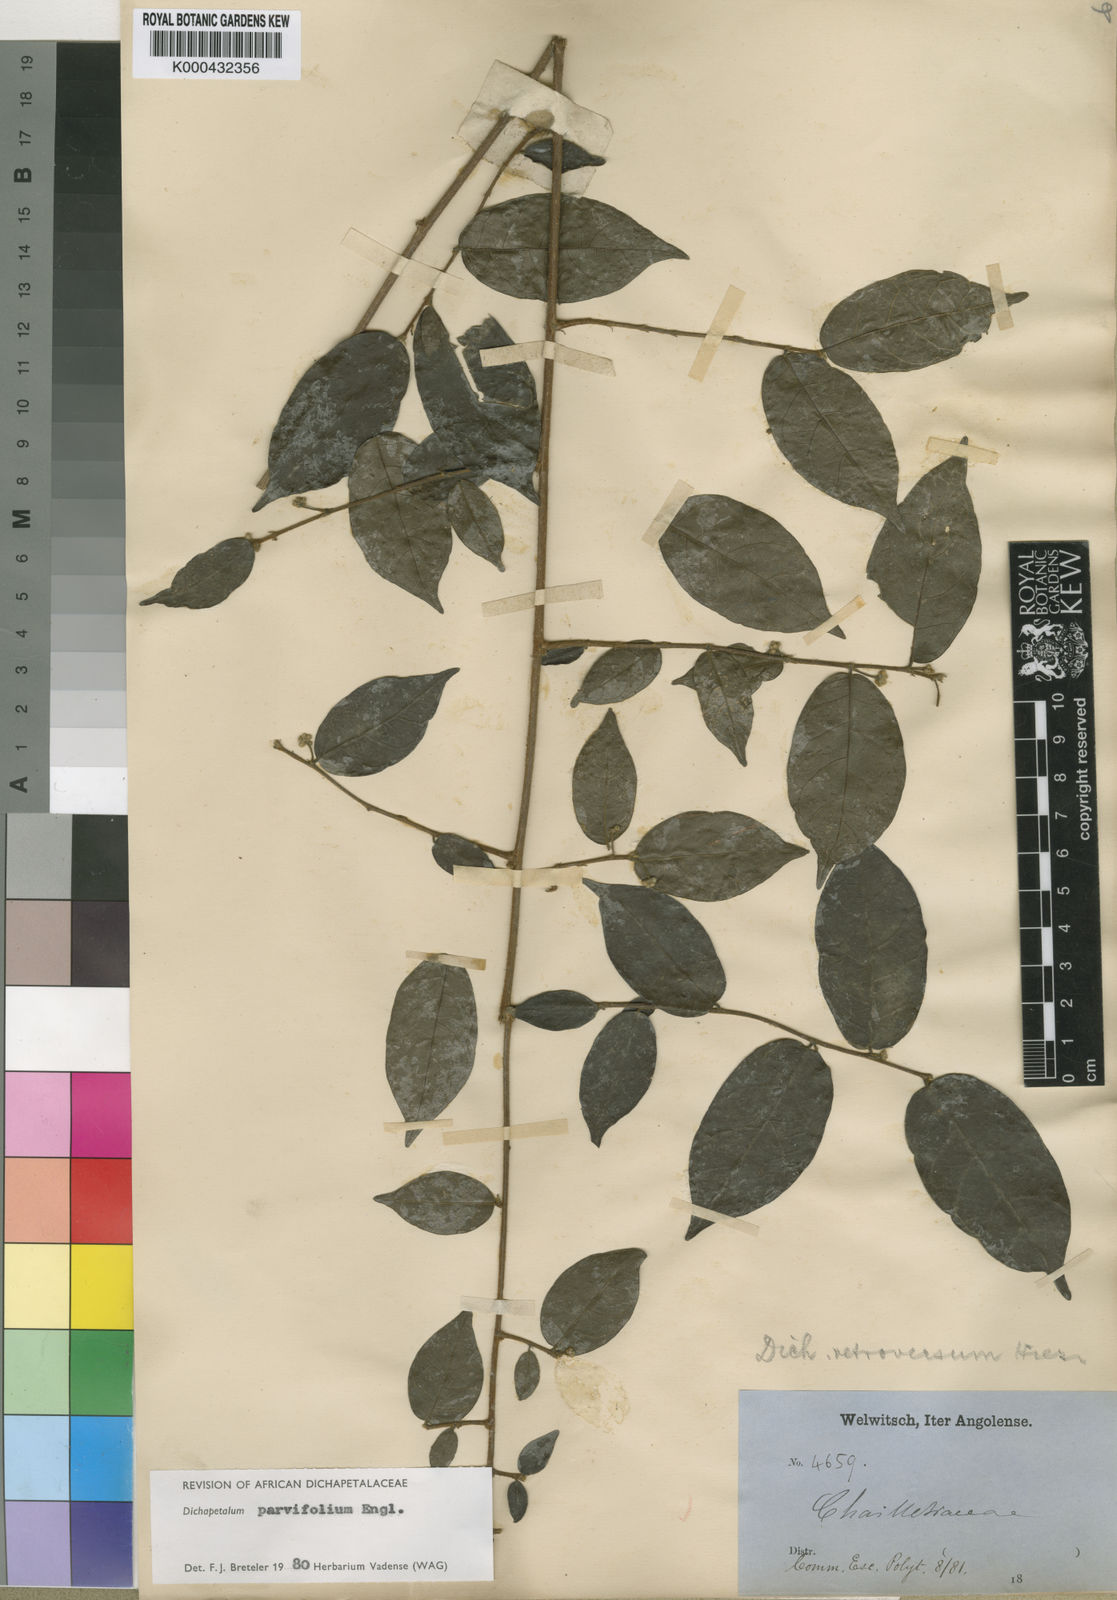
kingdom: Plantae
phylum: Tracheophyta
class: Magnoliopsida
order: Malpighiales
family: Dichapetalaceae
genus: Dichapetalum
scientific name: Dichapetalum parvifolium
